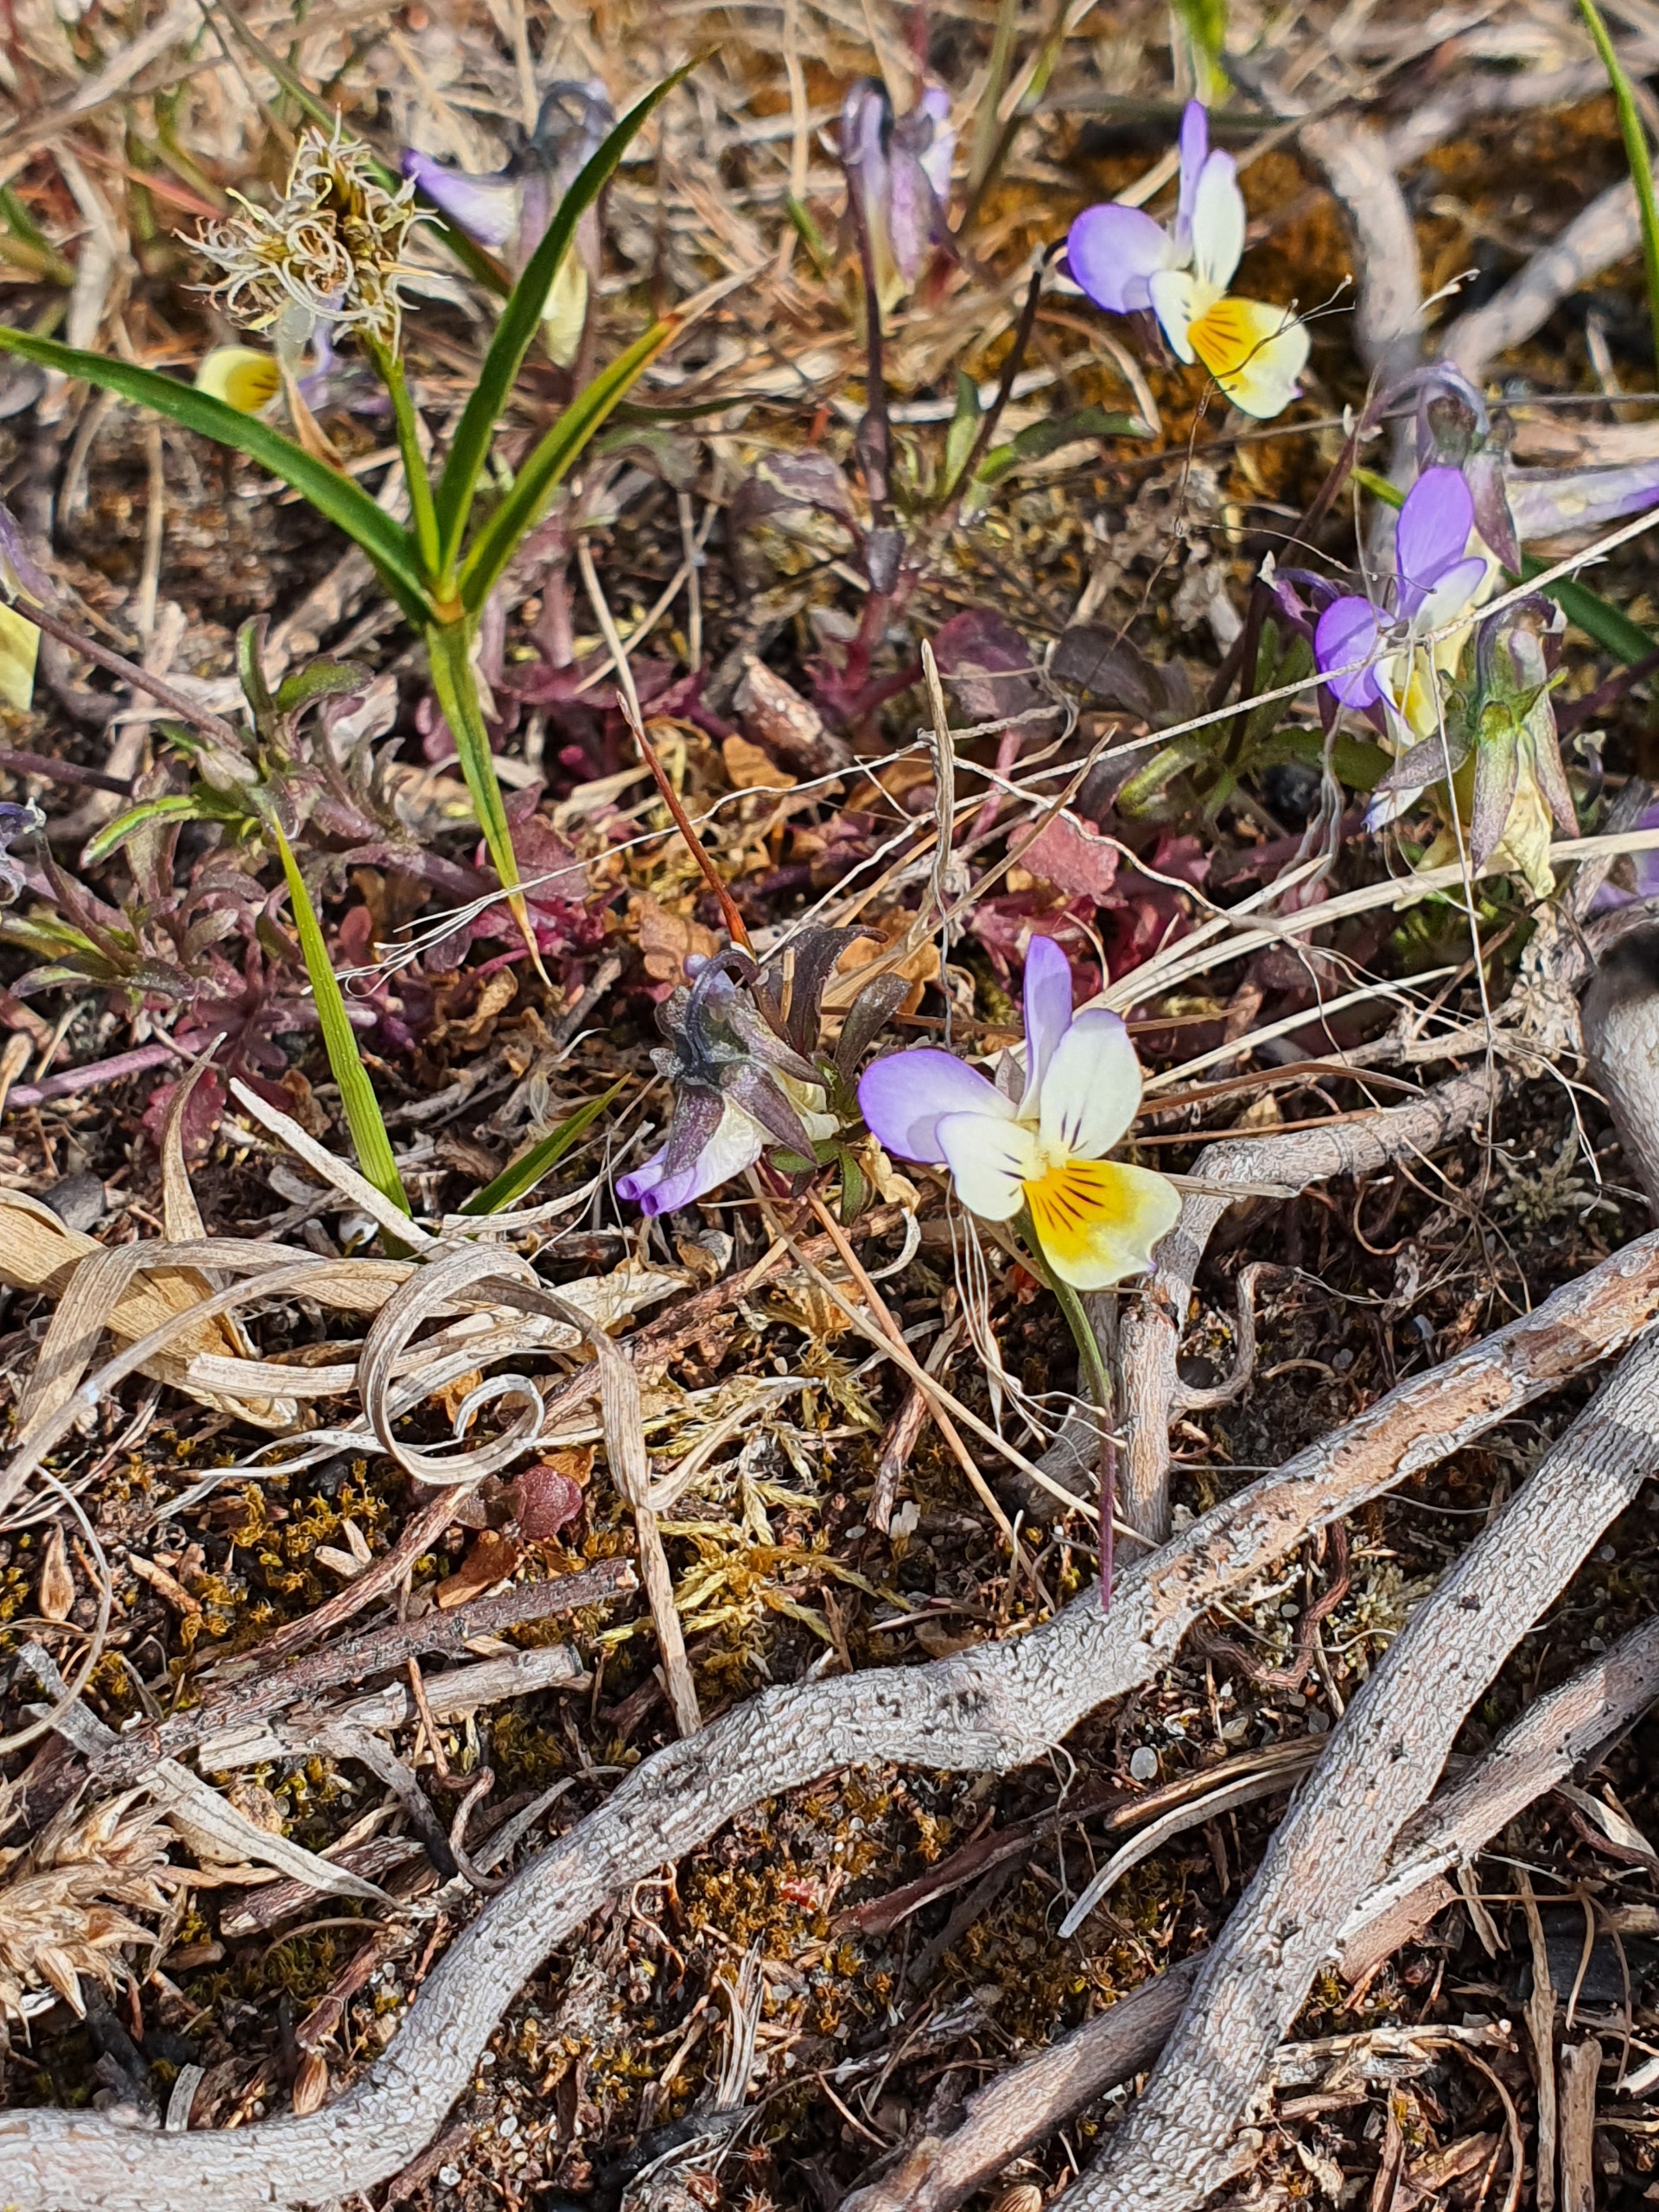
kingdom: Plantae
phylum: Tracheophyta
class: Magnoliopsida
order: Malpighiales
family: Violaceae
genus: Viola
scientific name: Viola tricolor
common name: Stedmoderblomst
